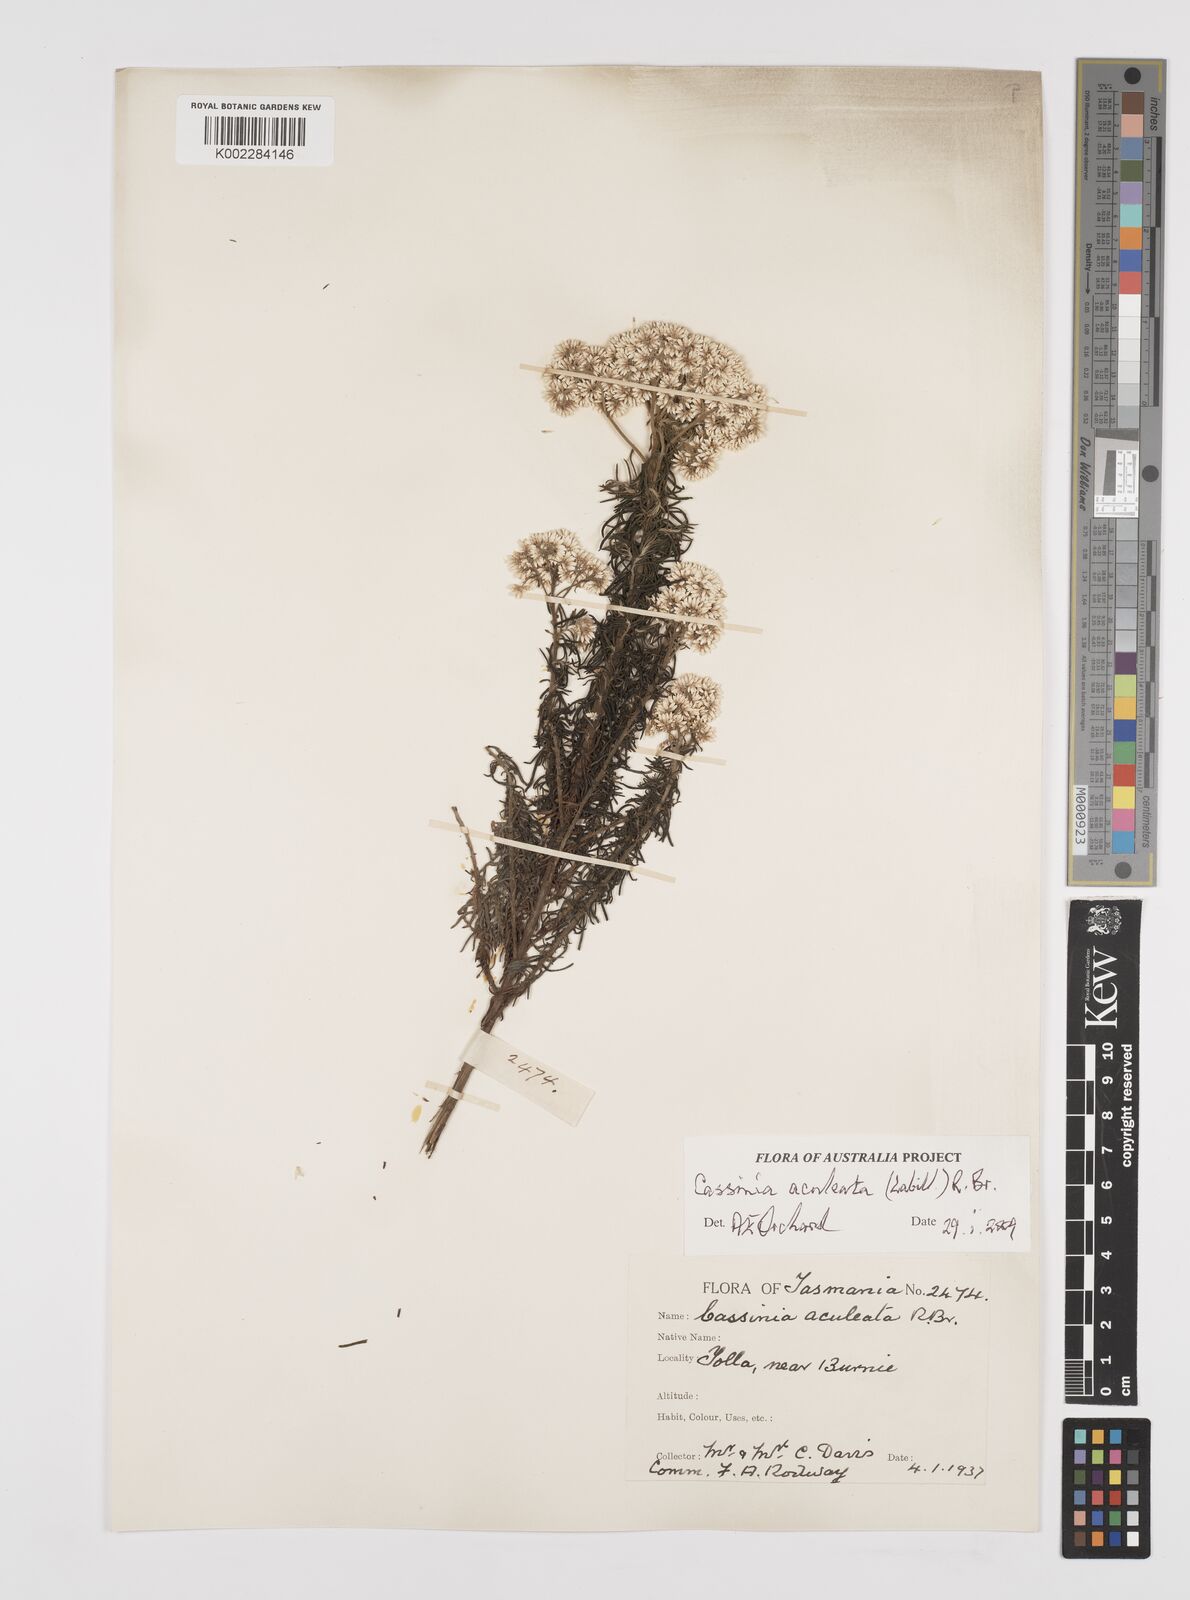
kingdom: Plantae
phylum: Tracheophyta
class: Magnoliopsida
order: Asterales
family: Asteraceae
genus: Cassinia
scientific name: Cassinia aculeata
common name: Australian tauhinu
